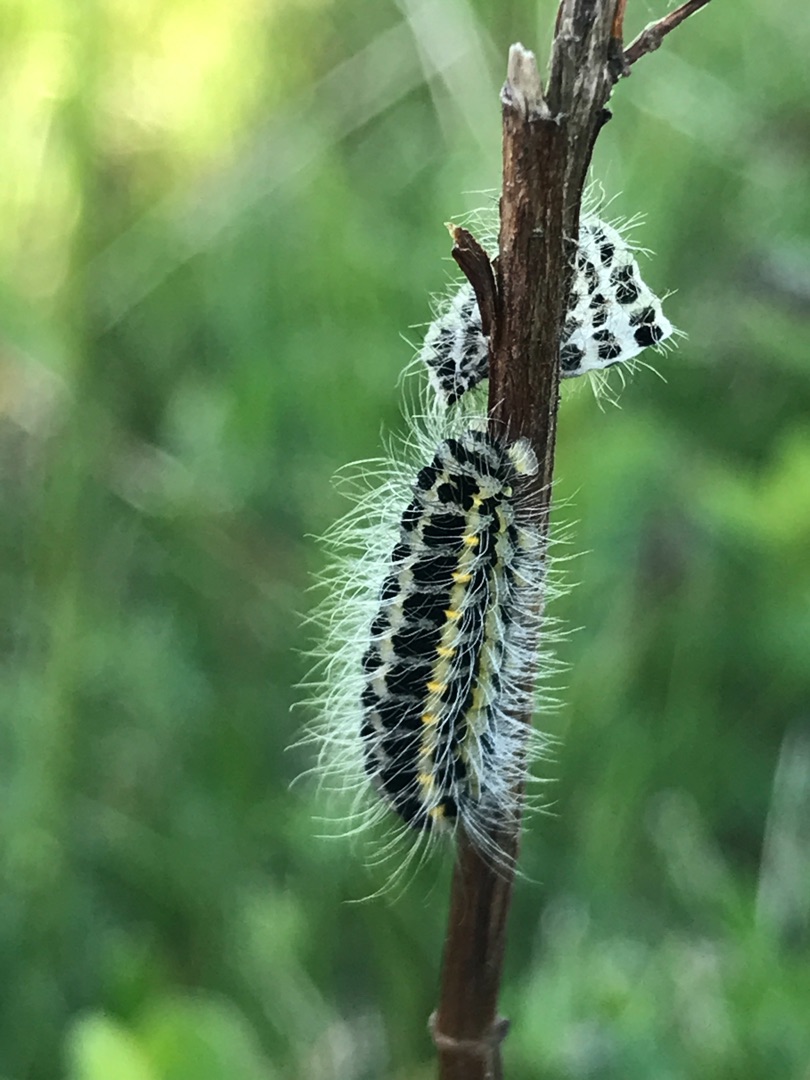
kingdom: Animalia
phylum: Arthropoda
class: Insecta
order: Lepidoptera
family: Zygaenidae
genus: Zygaena
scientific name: Zygaena lonicerae
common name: Femplettet køllesværmer
